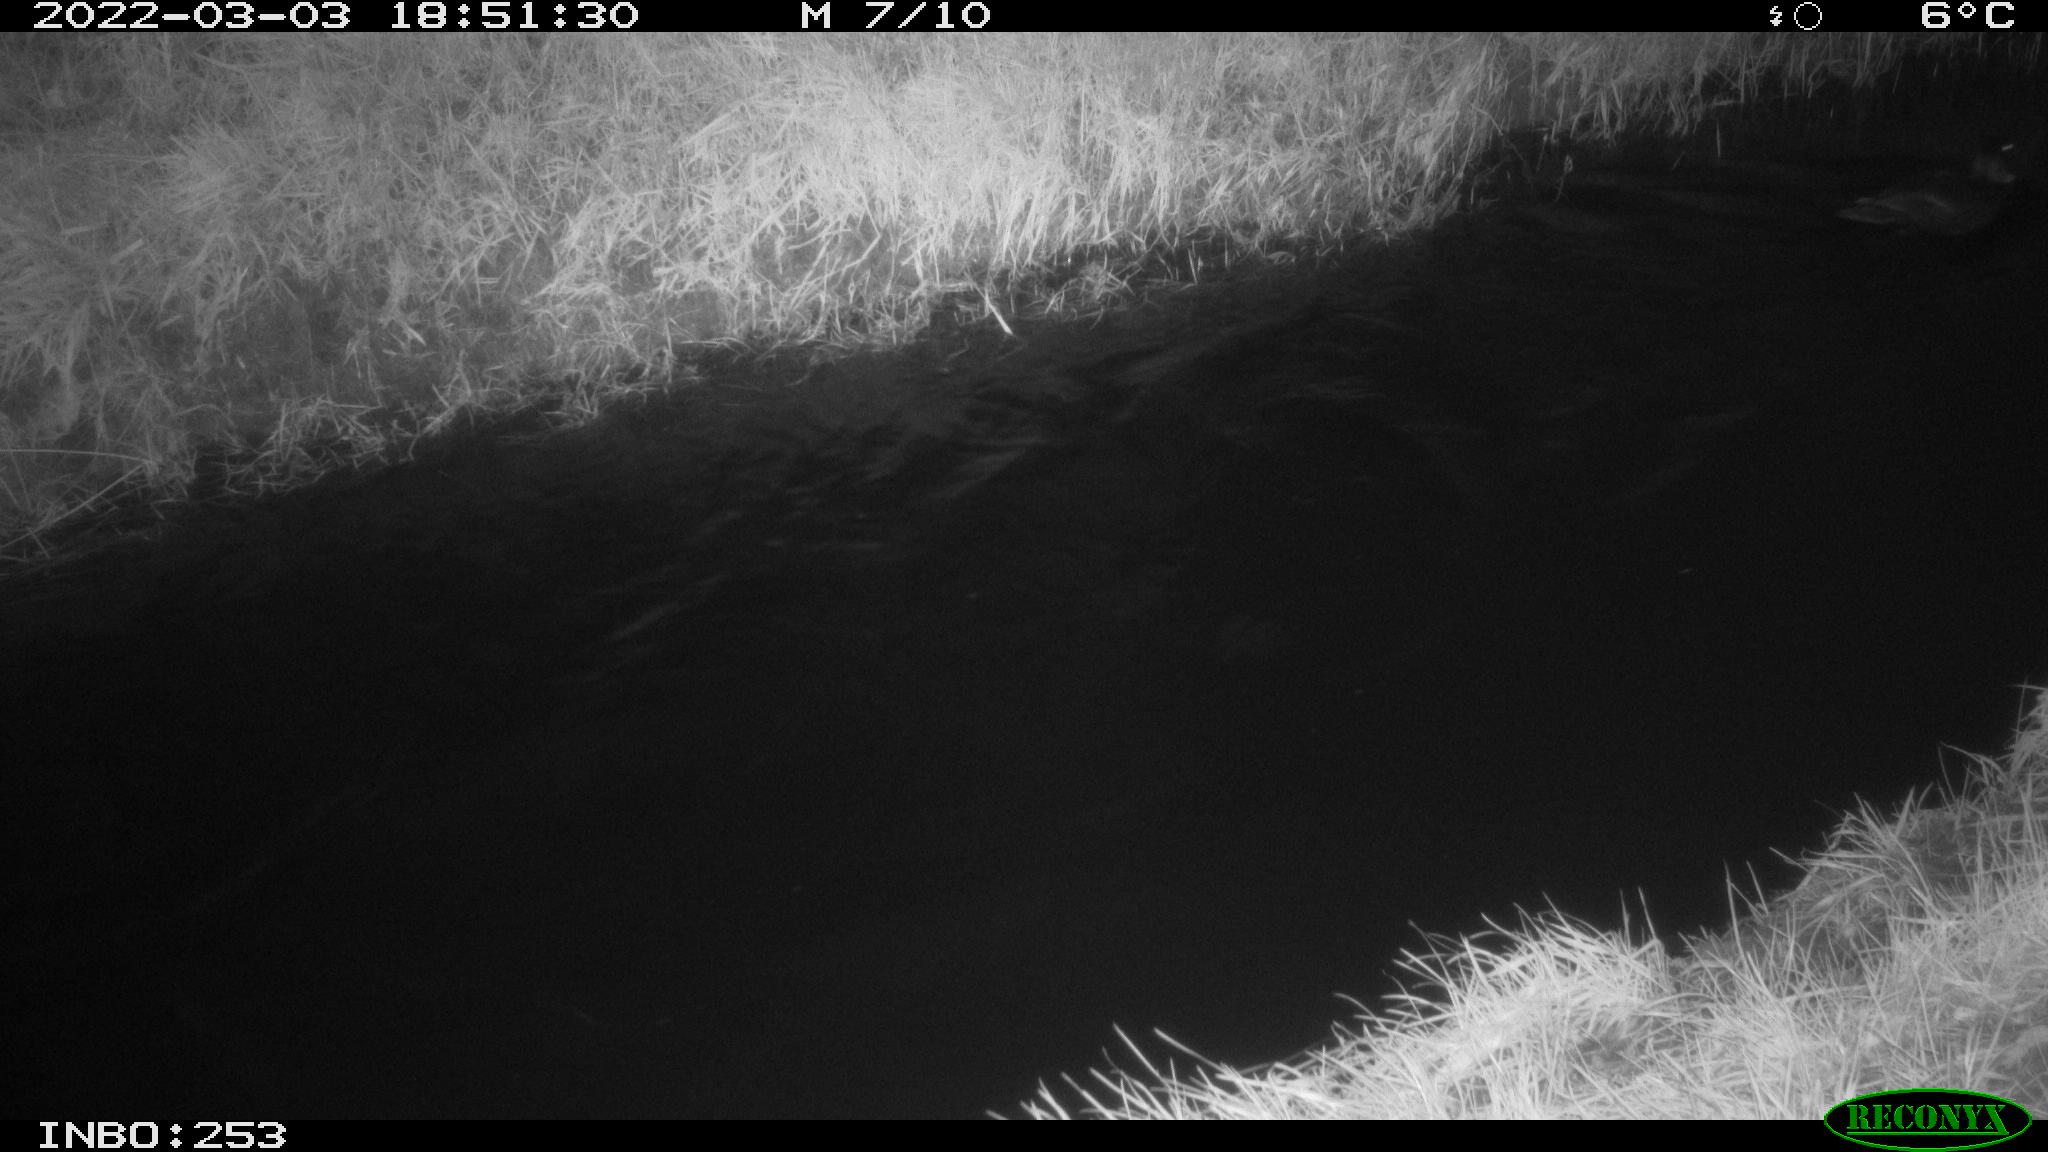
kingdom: Animalia
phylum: Chordata
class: Aves
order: Anseriformes
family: Anatidae
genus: Anas
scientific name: Anas platyrhynchos
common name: Mallard
